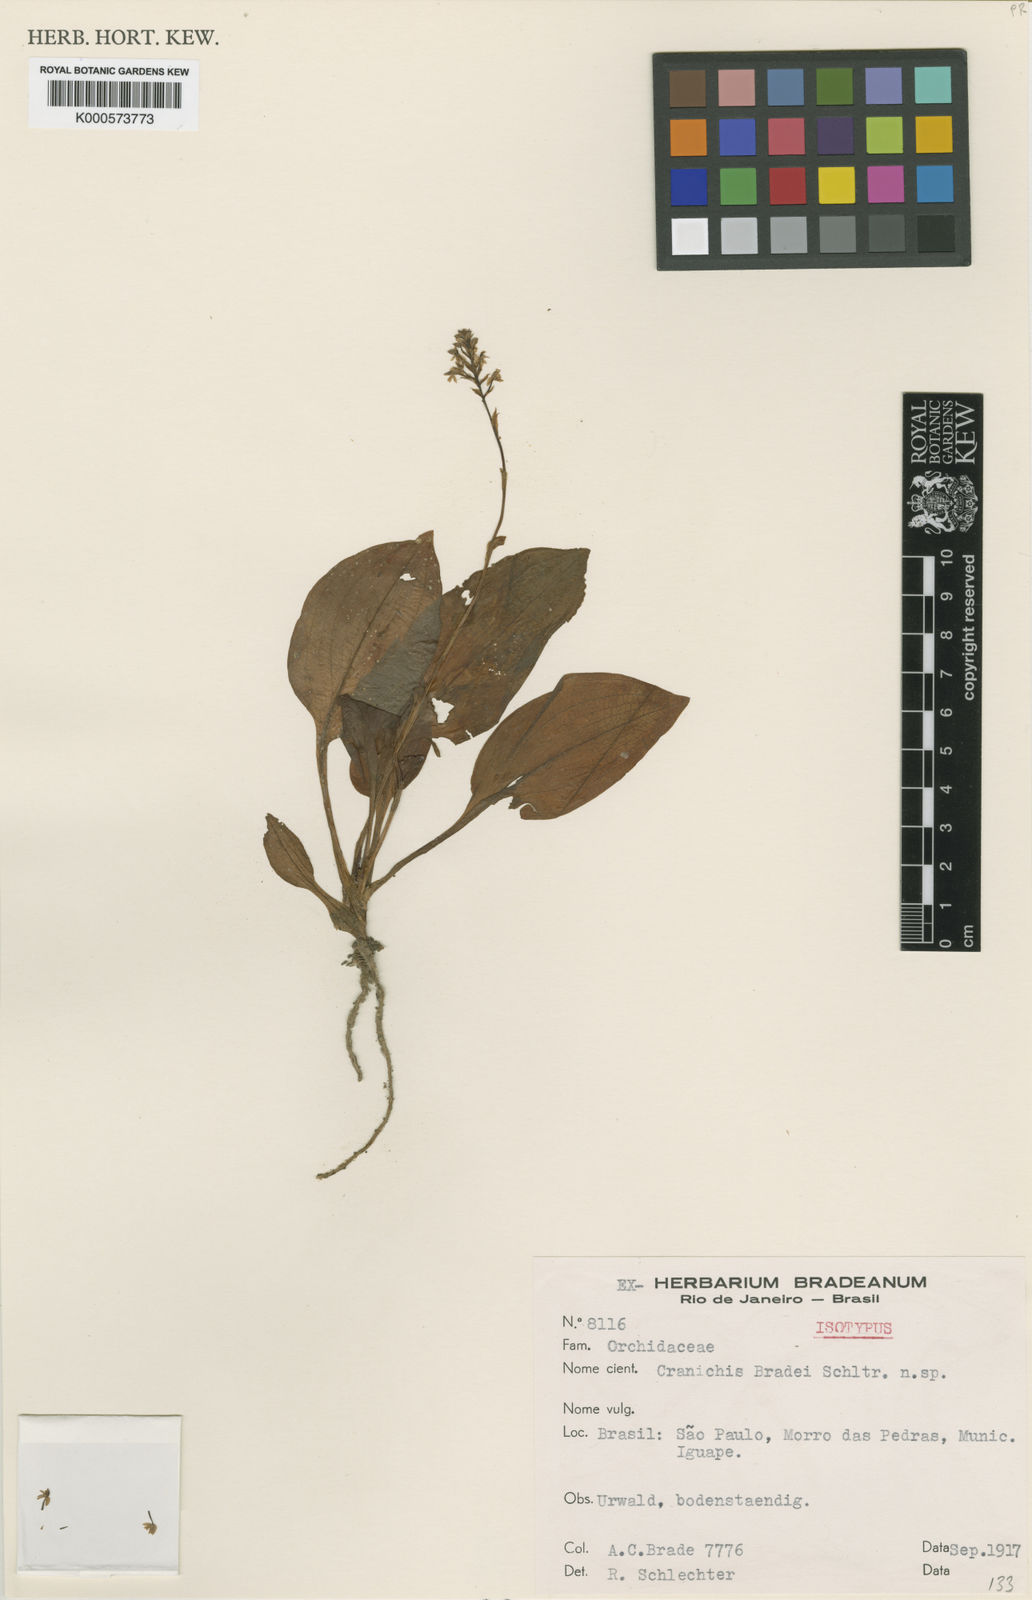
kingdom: Plantae
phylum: Tracheophyta
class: Liliopsida
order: Asparagales
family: Orchidaceae
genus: Cranichis
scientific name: Cranichis muscosa
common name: Cypress-knee helmet orchid
